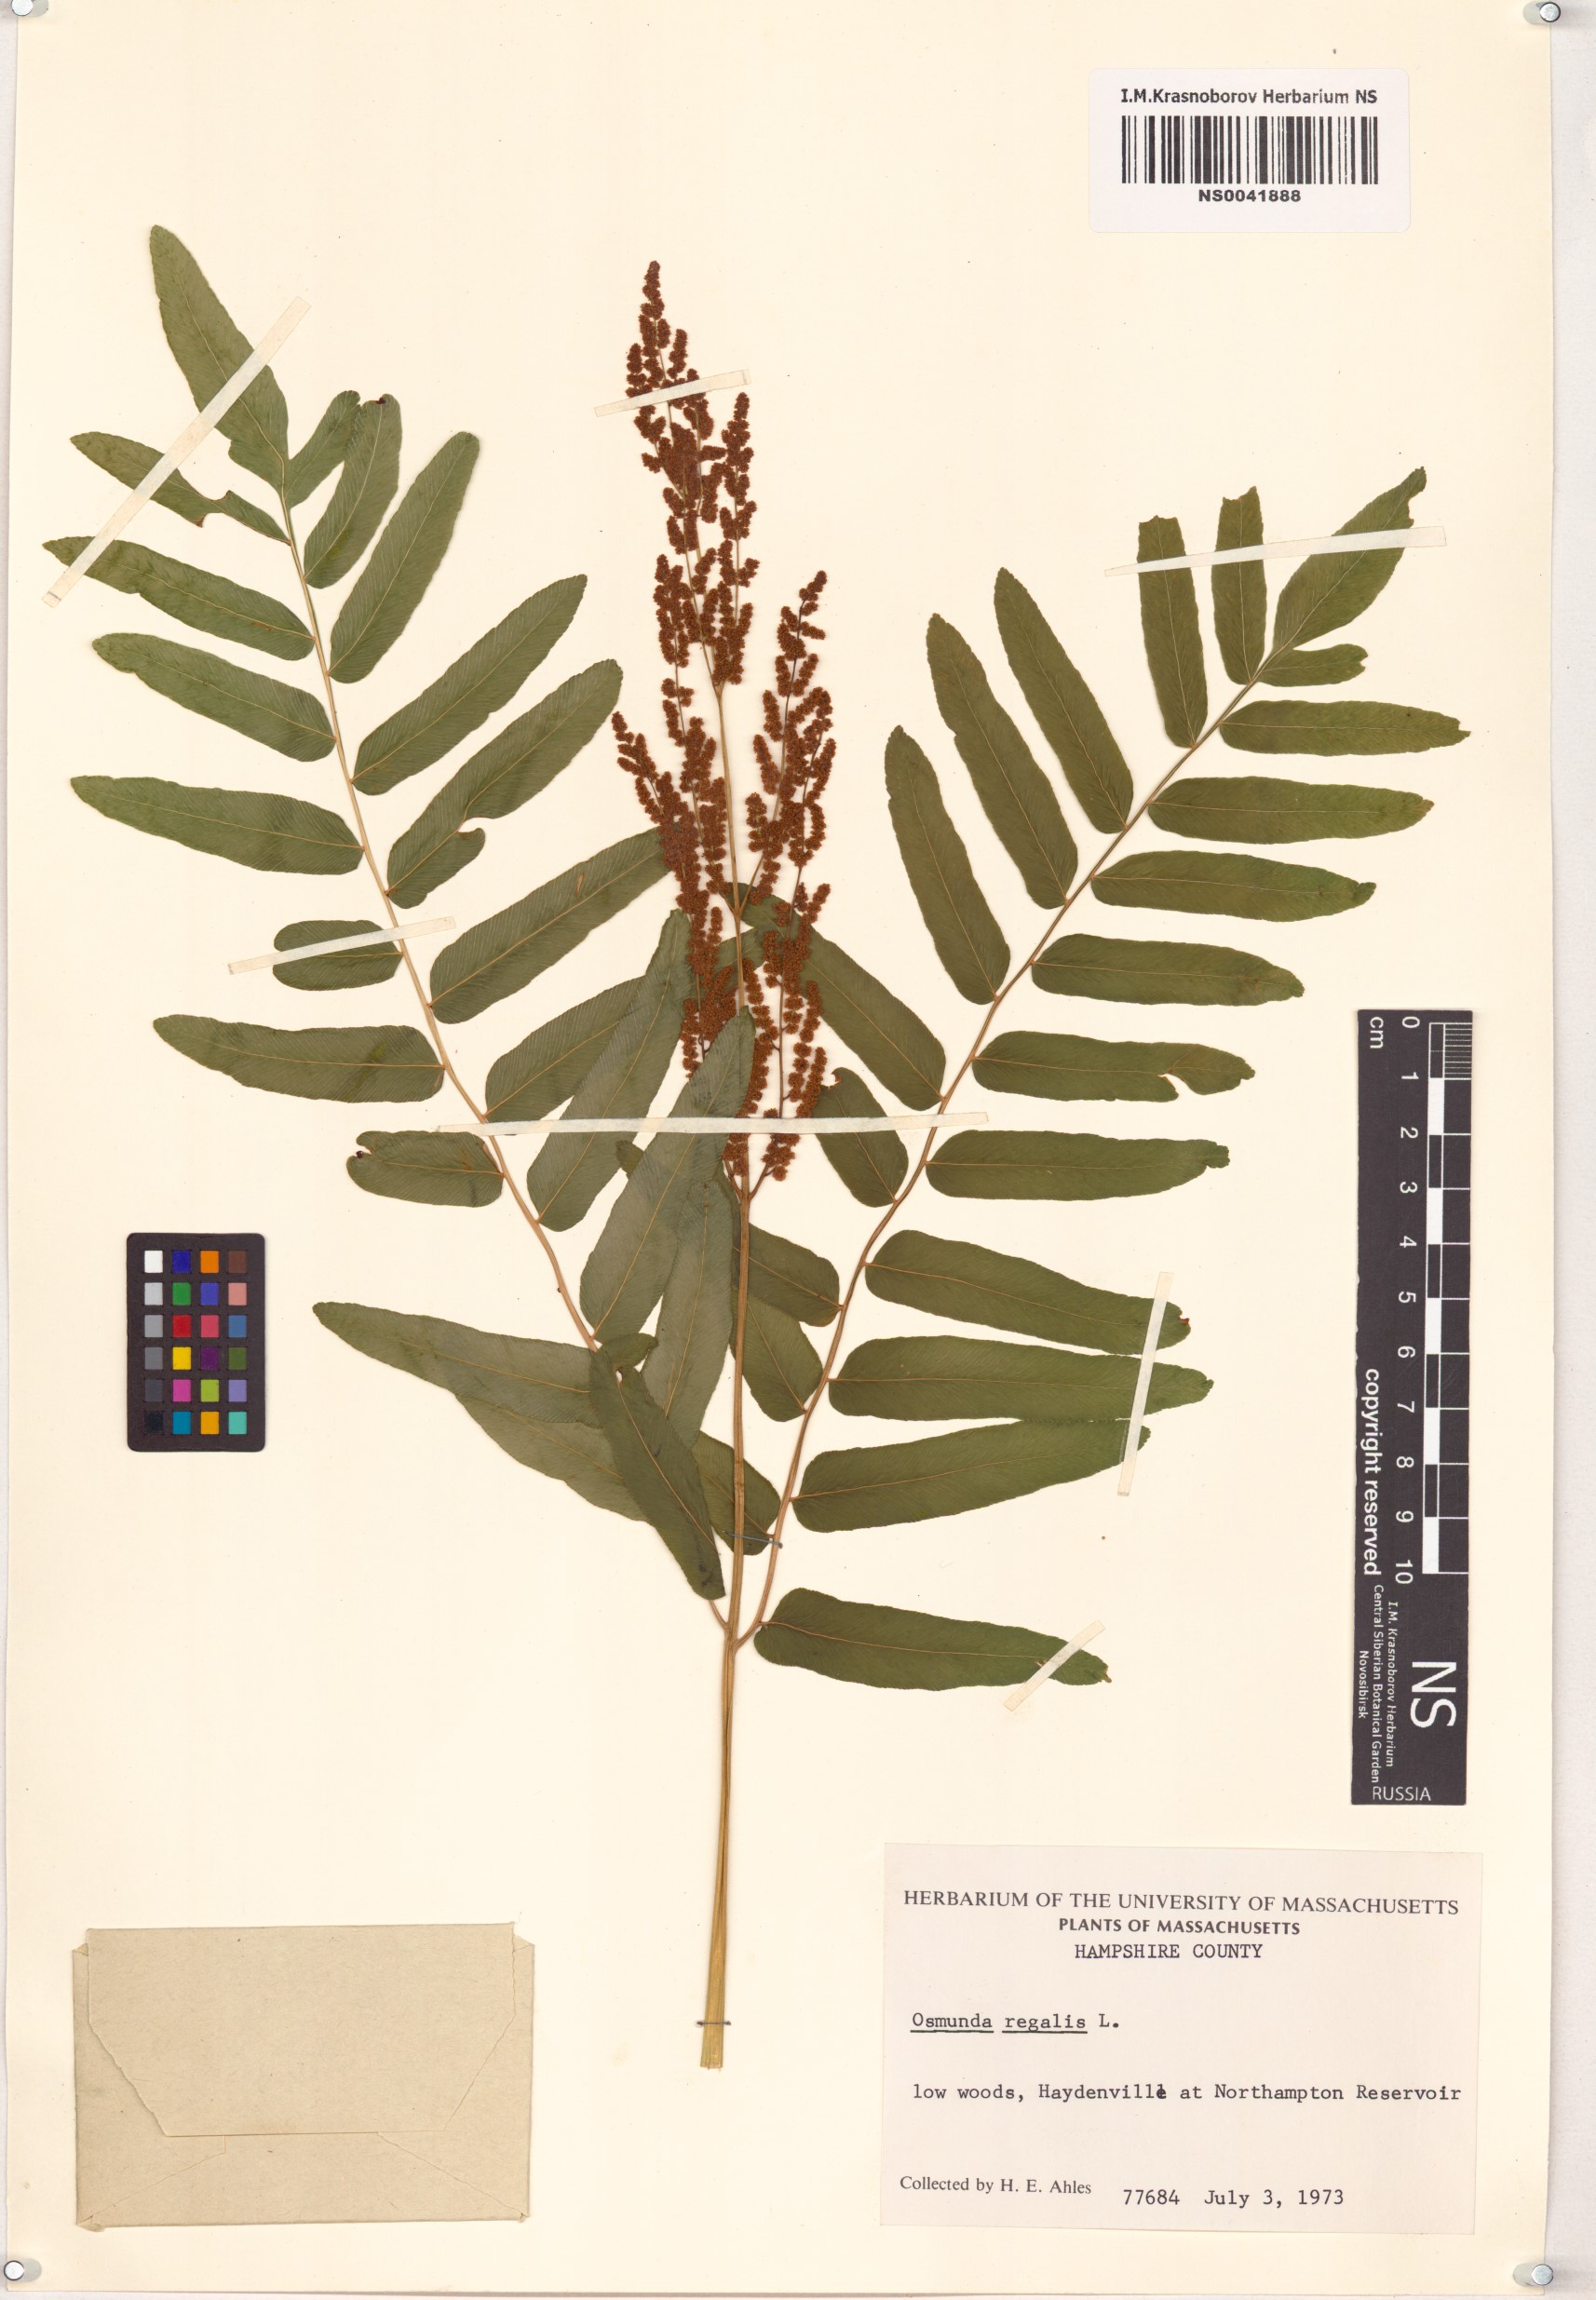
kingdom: Plantae
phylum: Tracheophyta
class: Polypodiopsida
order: Osmundales
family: Osmundaceae
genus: Osmunda
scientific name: Osmunda regalis
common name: Royal fern
